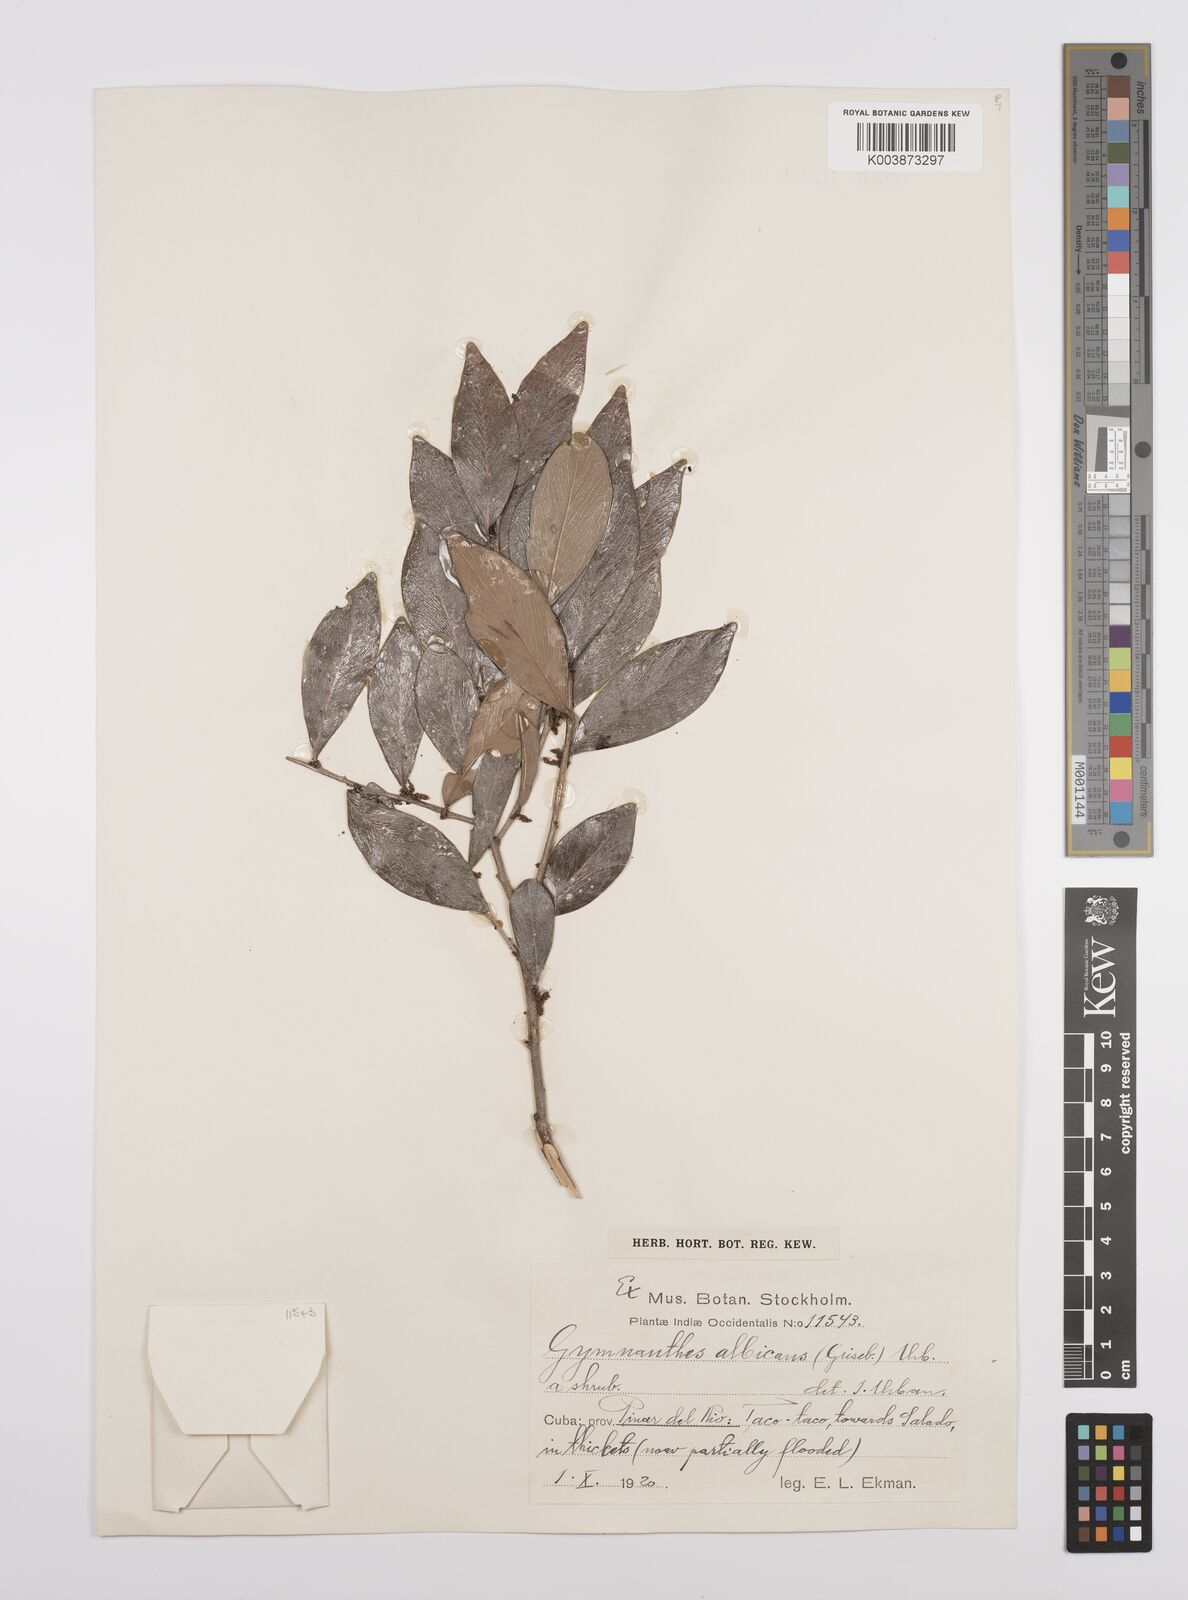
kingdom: Plantae
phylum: Tracheophyta
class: Magnoliopsida
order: Malpighiales
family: Euphorbiaceae
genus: Gymnanthes
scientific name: Gymnanthes albicans
